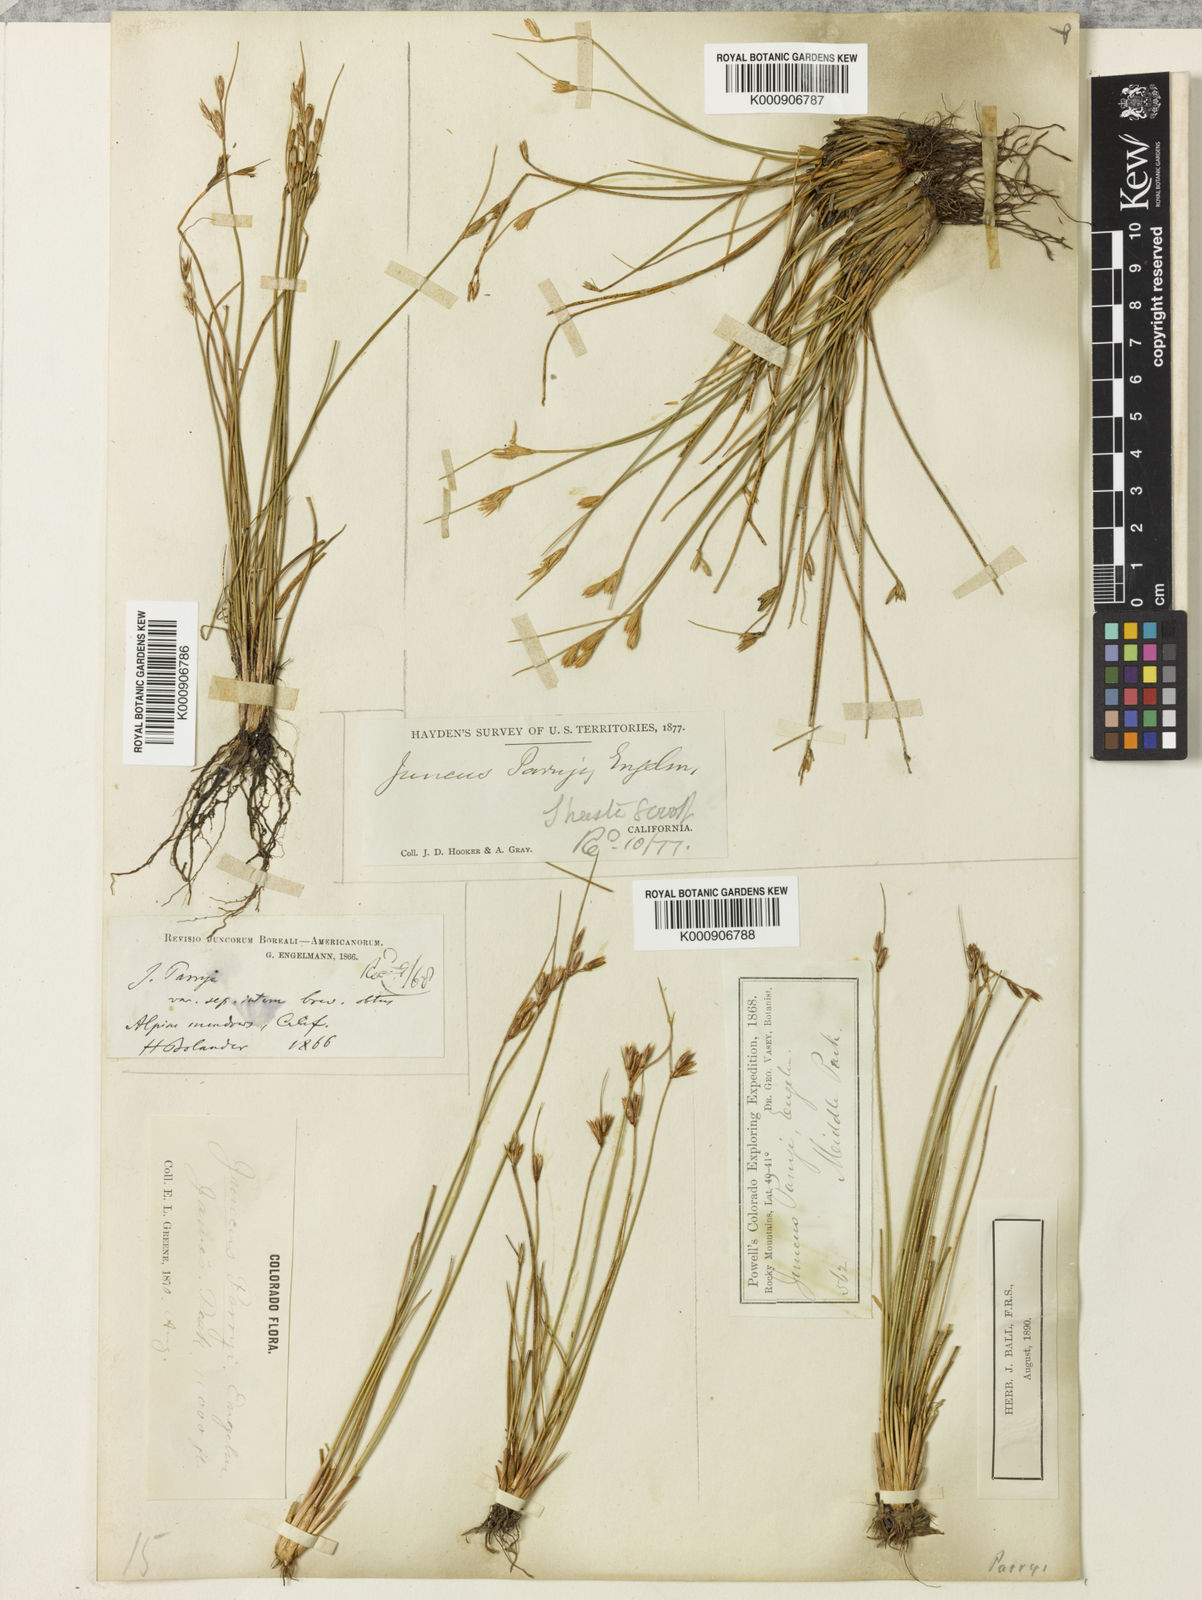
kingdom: Plantae
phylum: Tracheophyta
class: Liliopsida
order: Poales
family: Juncaceae
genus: Juncus
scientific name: Juncus parryi
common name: Parry's rush
